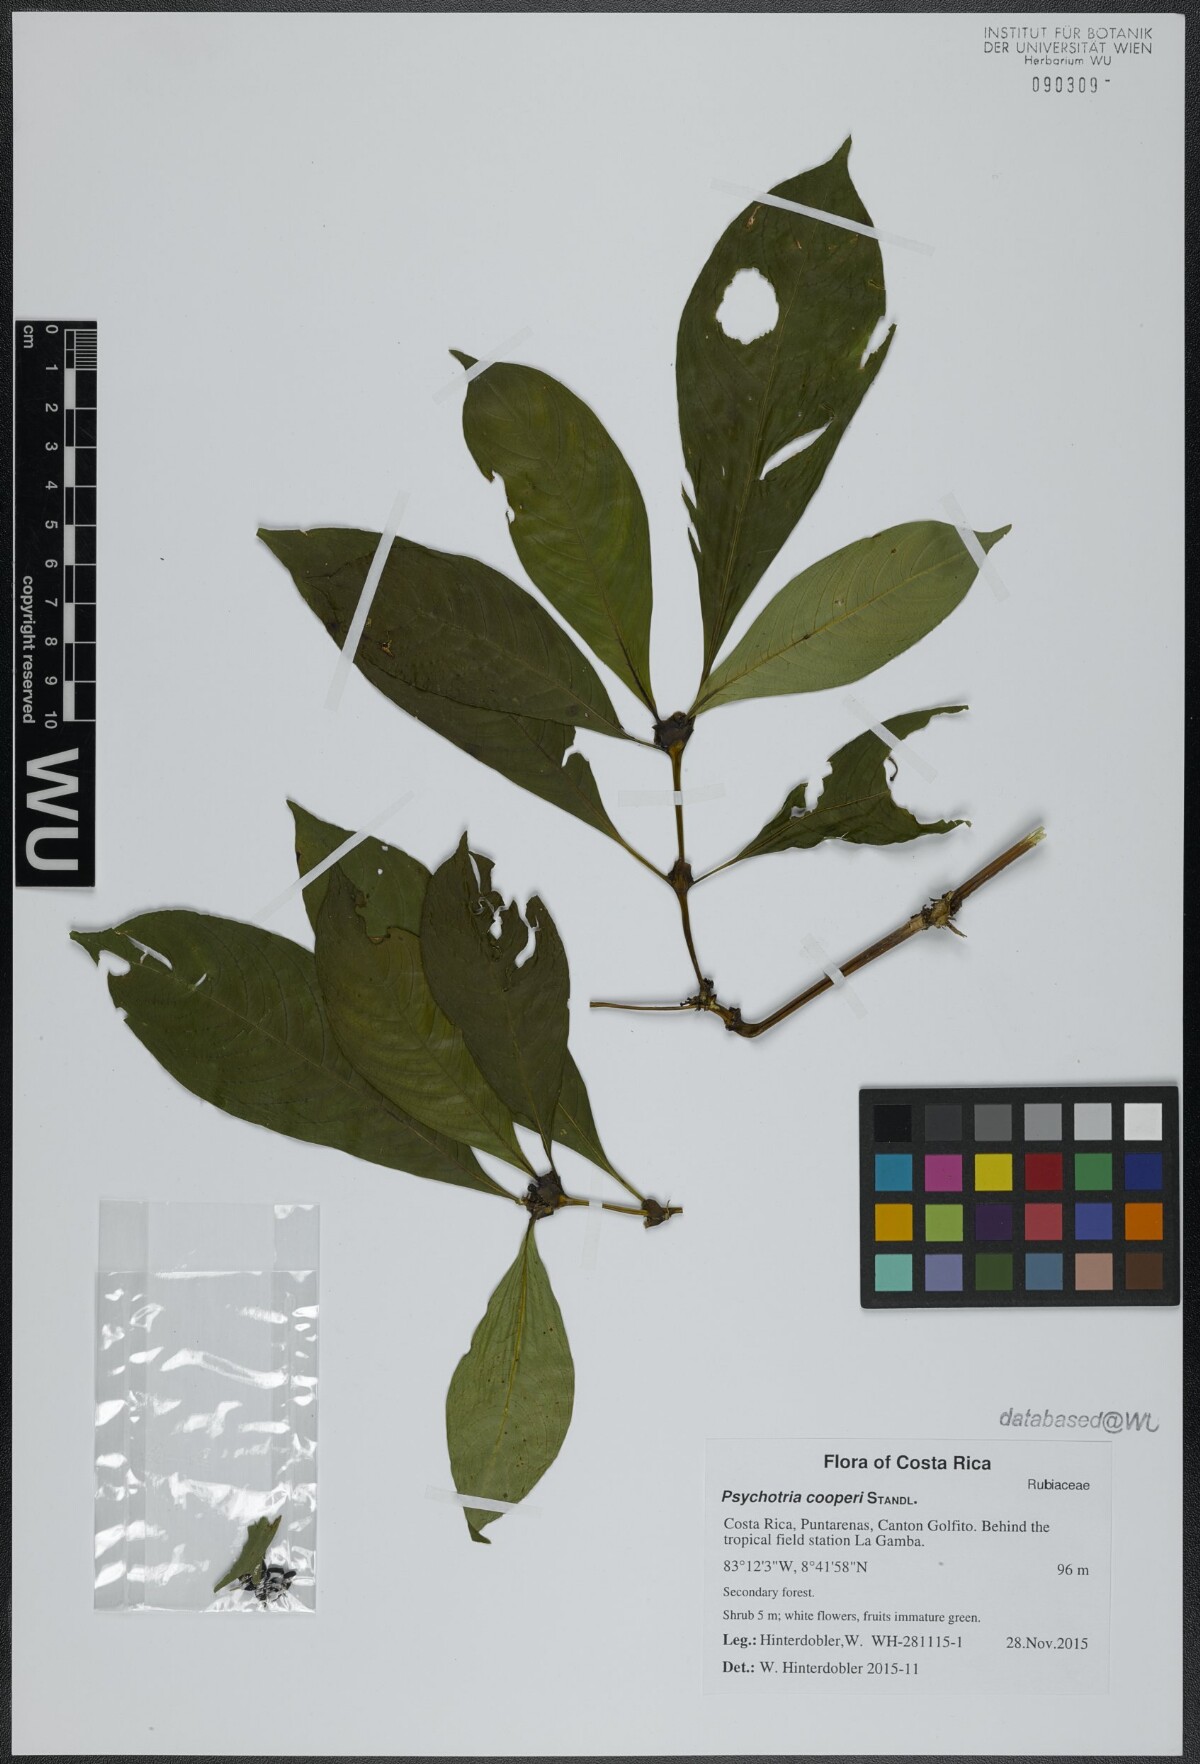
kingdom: Plantae
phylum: Tracheophyta
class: Magnoliopsida
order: Gentianales
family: Rubiaceae
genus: Palicourea
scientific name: Palicourea pseudaxillaris
